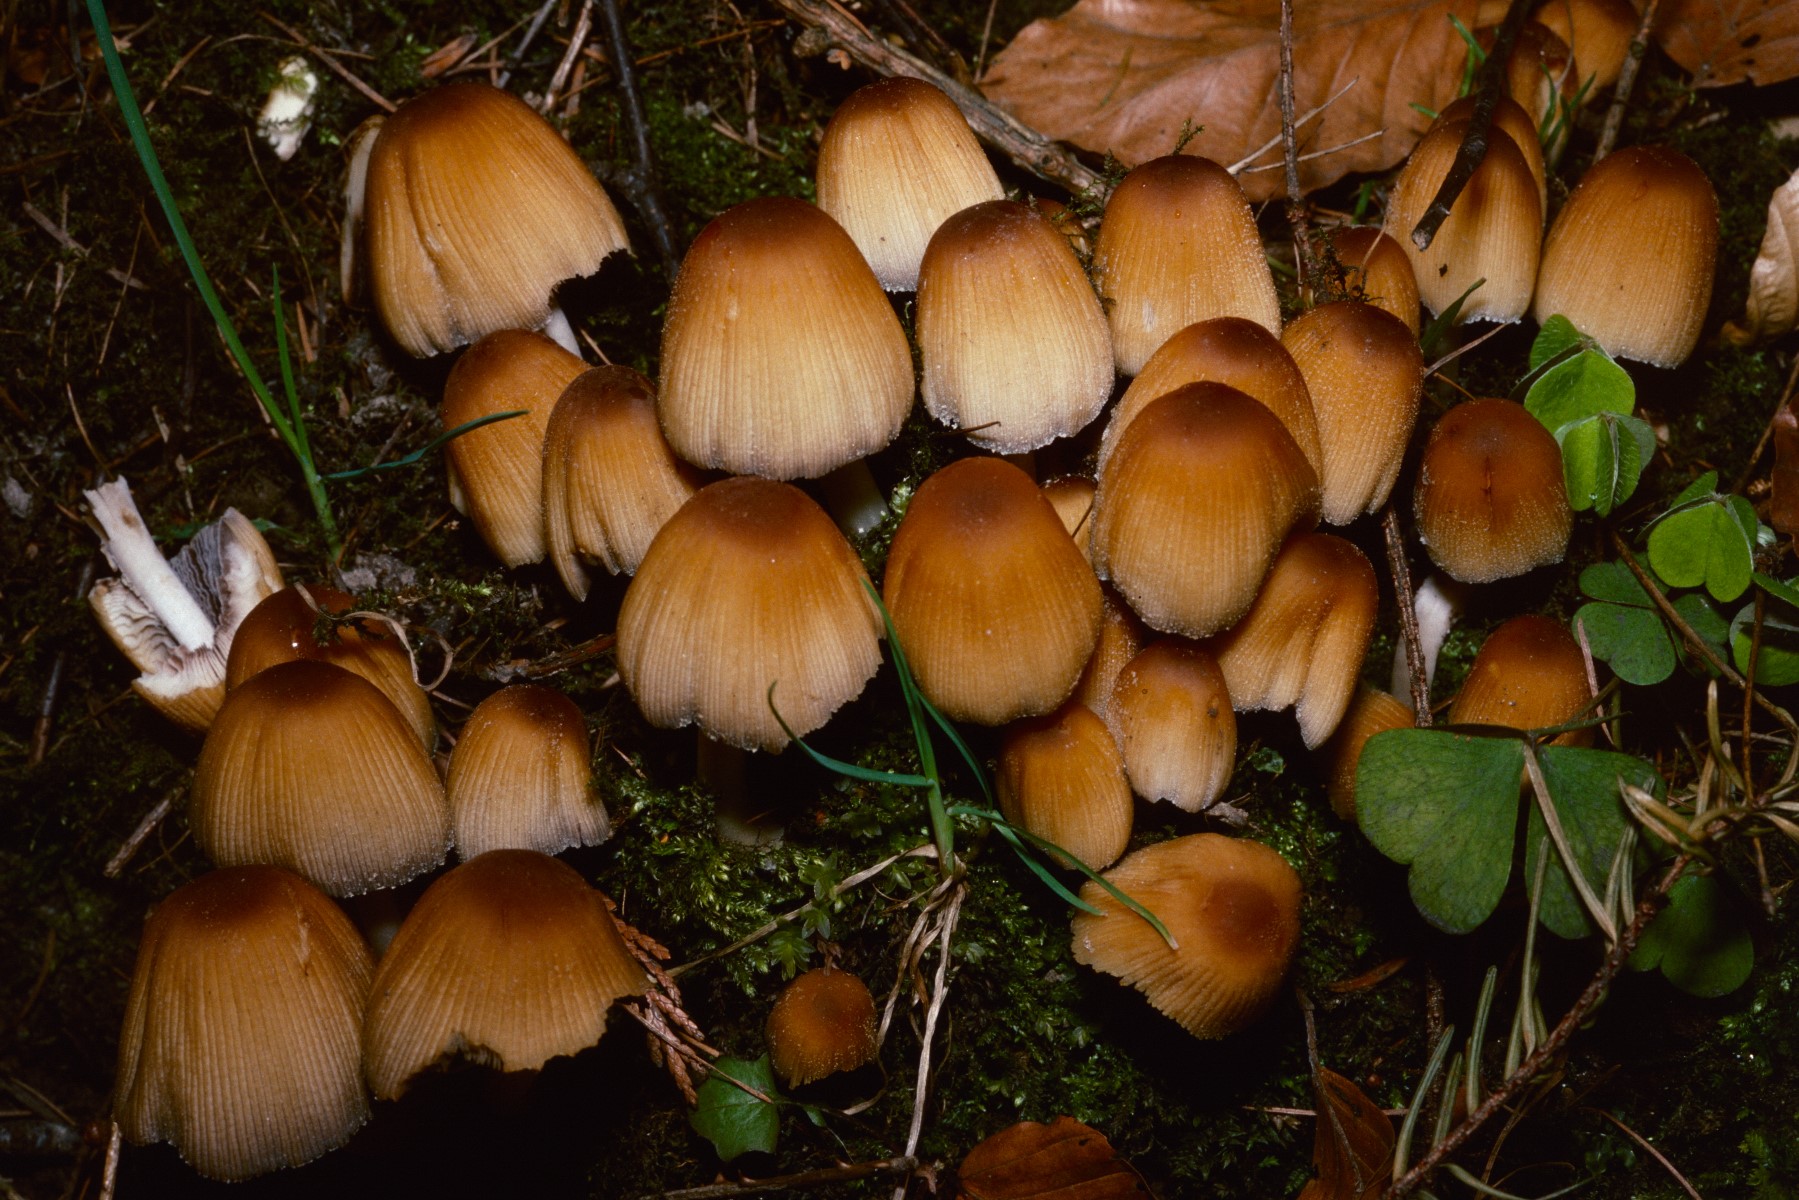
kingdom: Fungi
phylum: Basidiomycota
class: Agaricomycetes
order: Agaricales
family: Psathyrellaceae
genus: Coprinellus
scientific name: Coprinellus micaceus
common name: glimmer-blækhat
